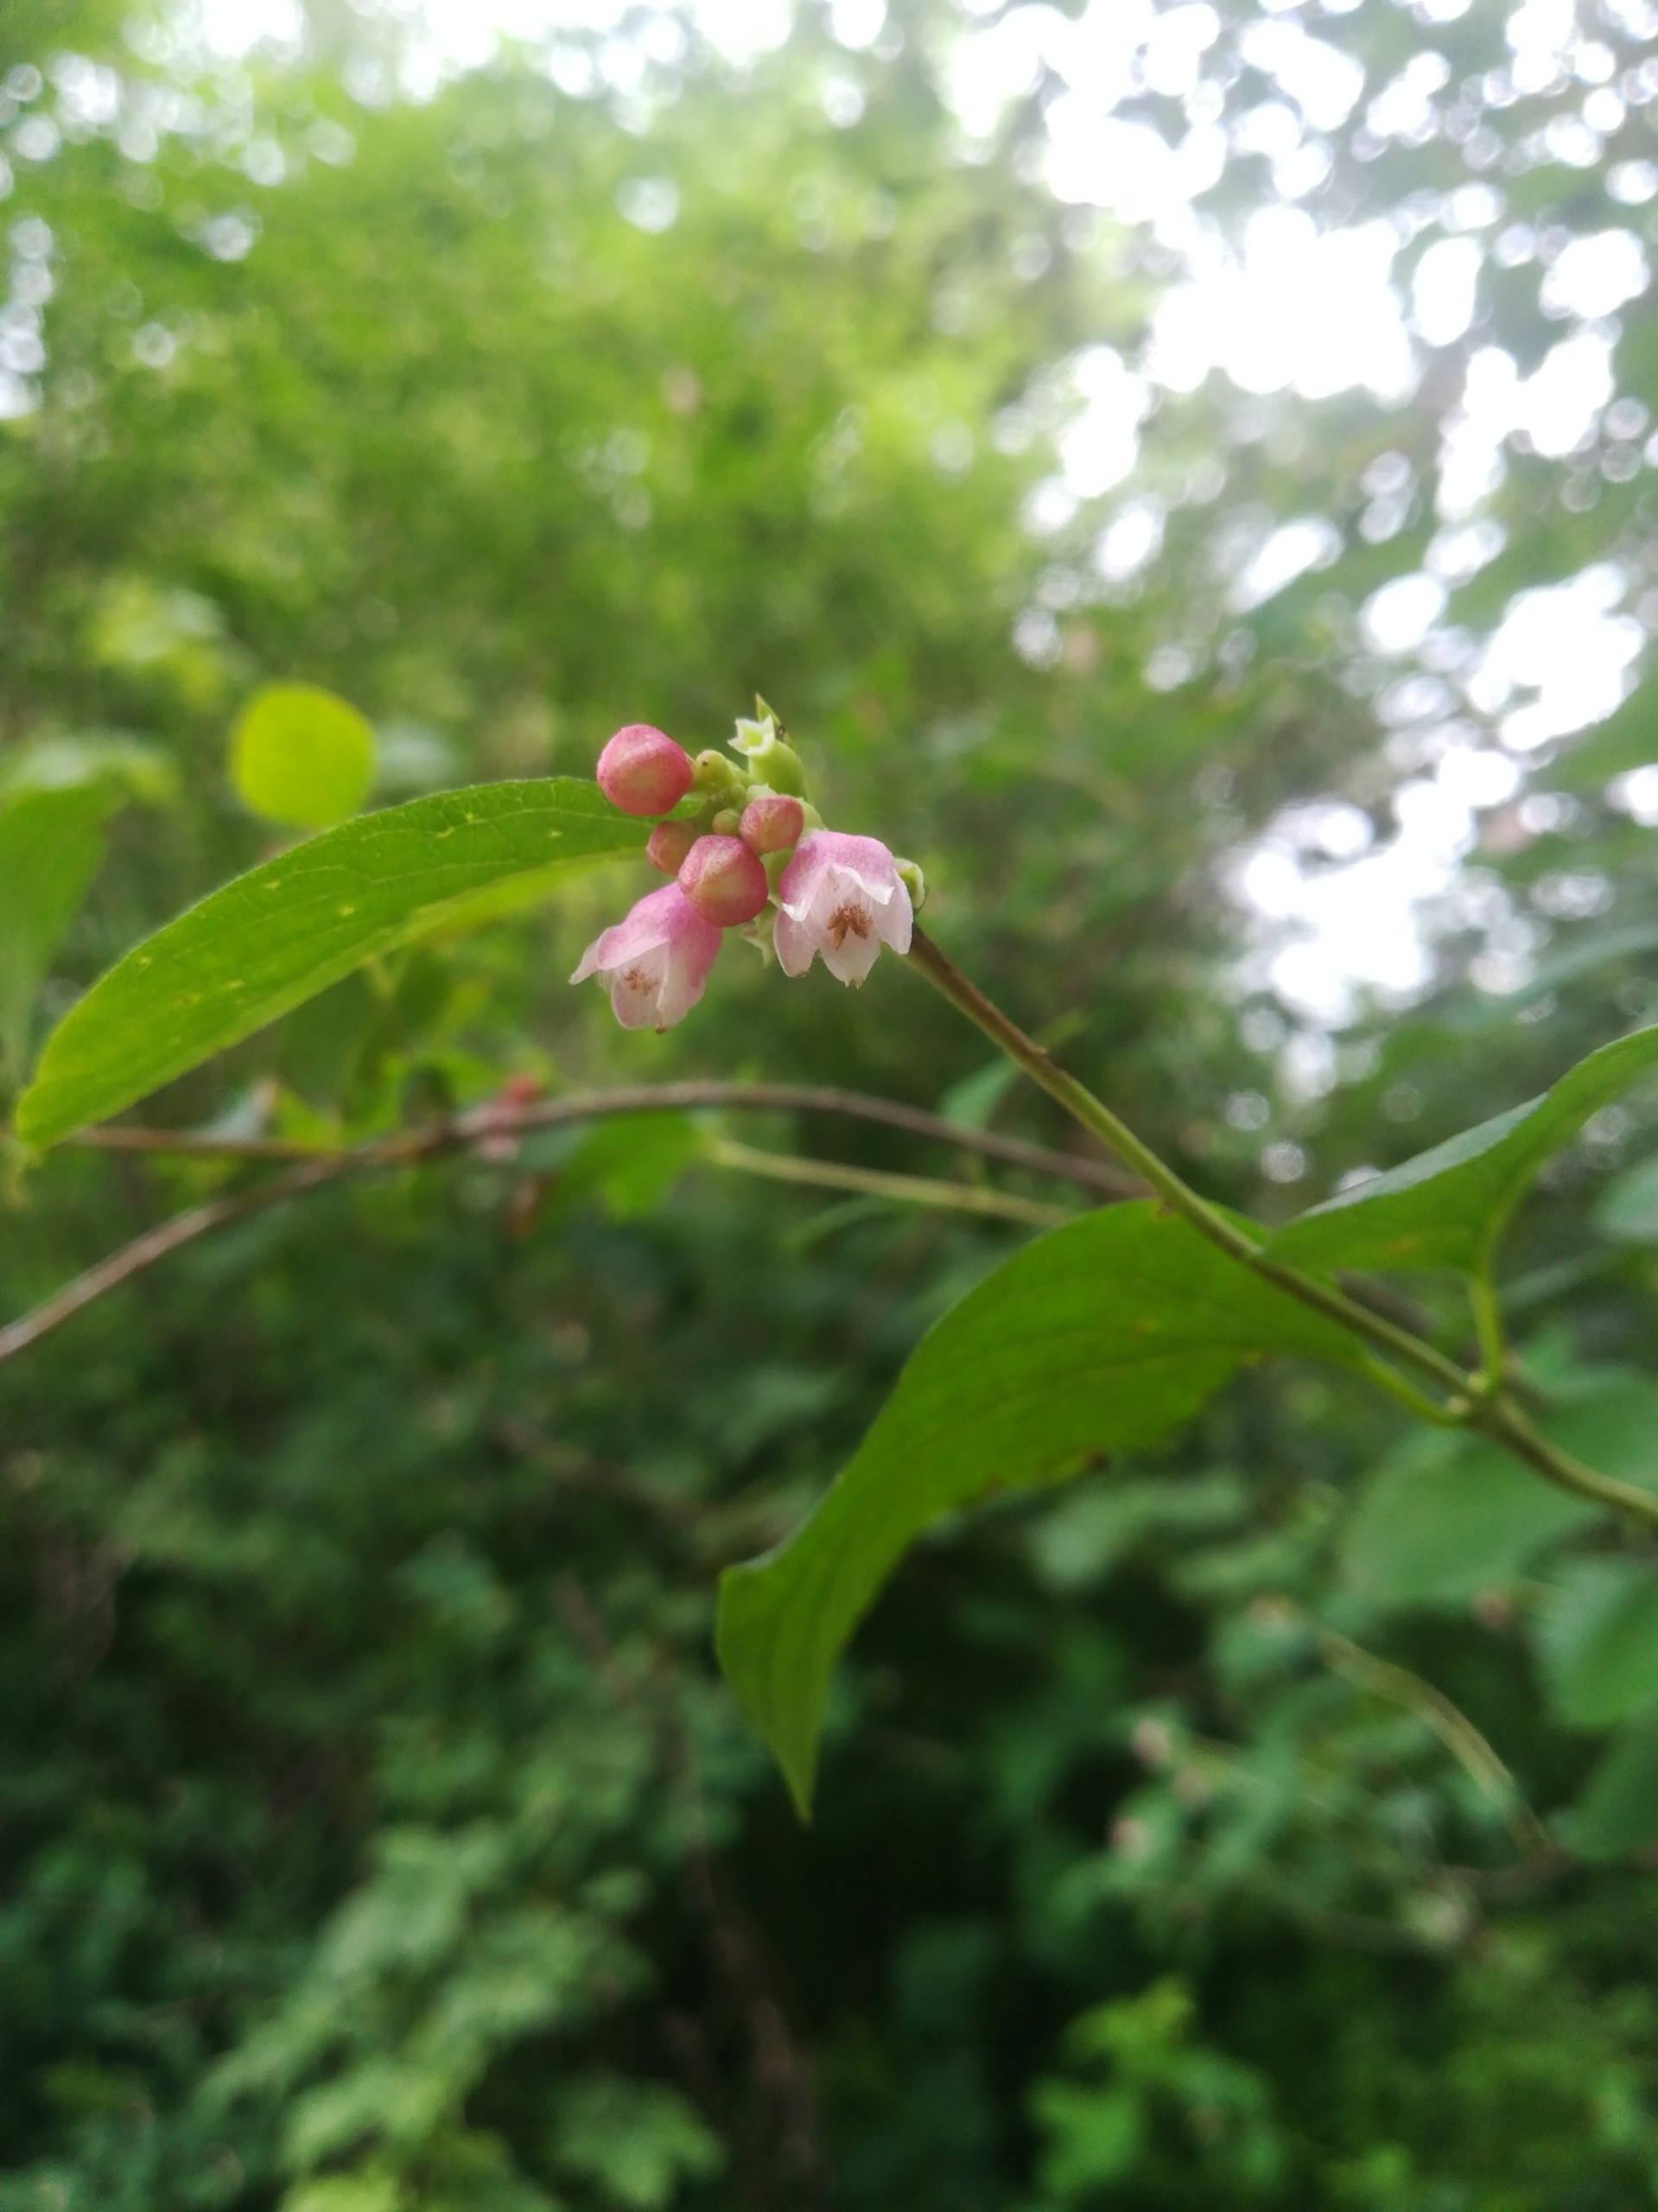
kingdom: Plantae
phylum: Tracheophyta
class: Magnoliopsida
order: Dipsacales
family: Caprifoliaceae
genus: Symphoricarpos
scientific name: Symphoricarpos albus
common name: Almindelig snebær
